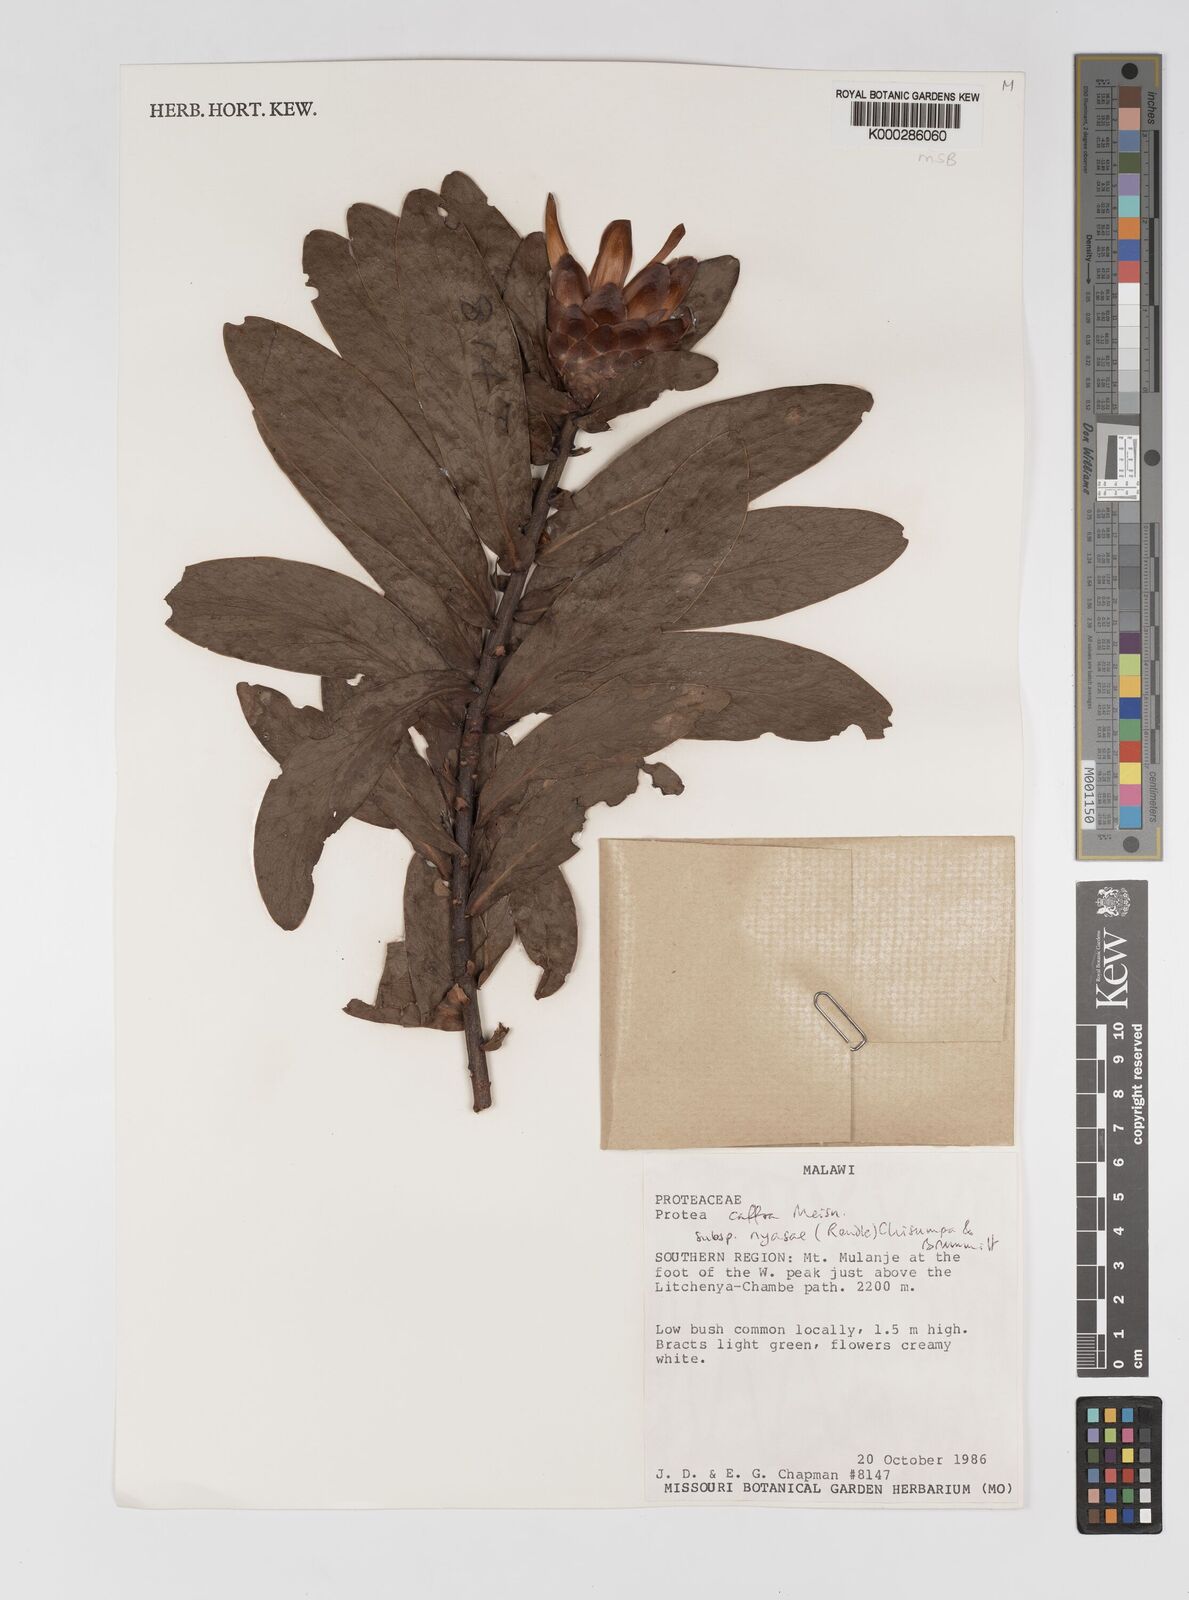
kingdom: Plantae
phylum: Tracheophyta
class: Magnoliopsida
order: Proteales
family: Proteaceae
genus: Protea
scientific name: Protea caffra
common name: Common sugarbush
